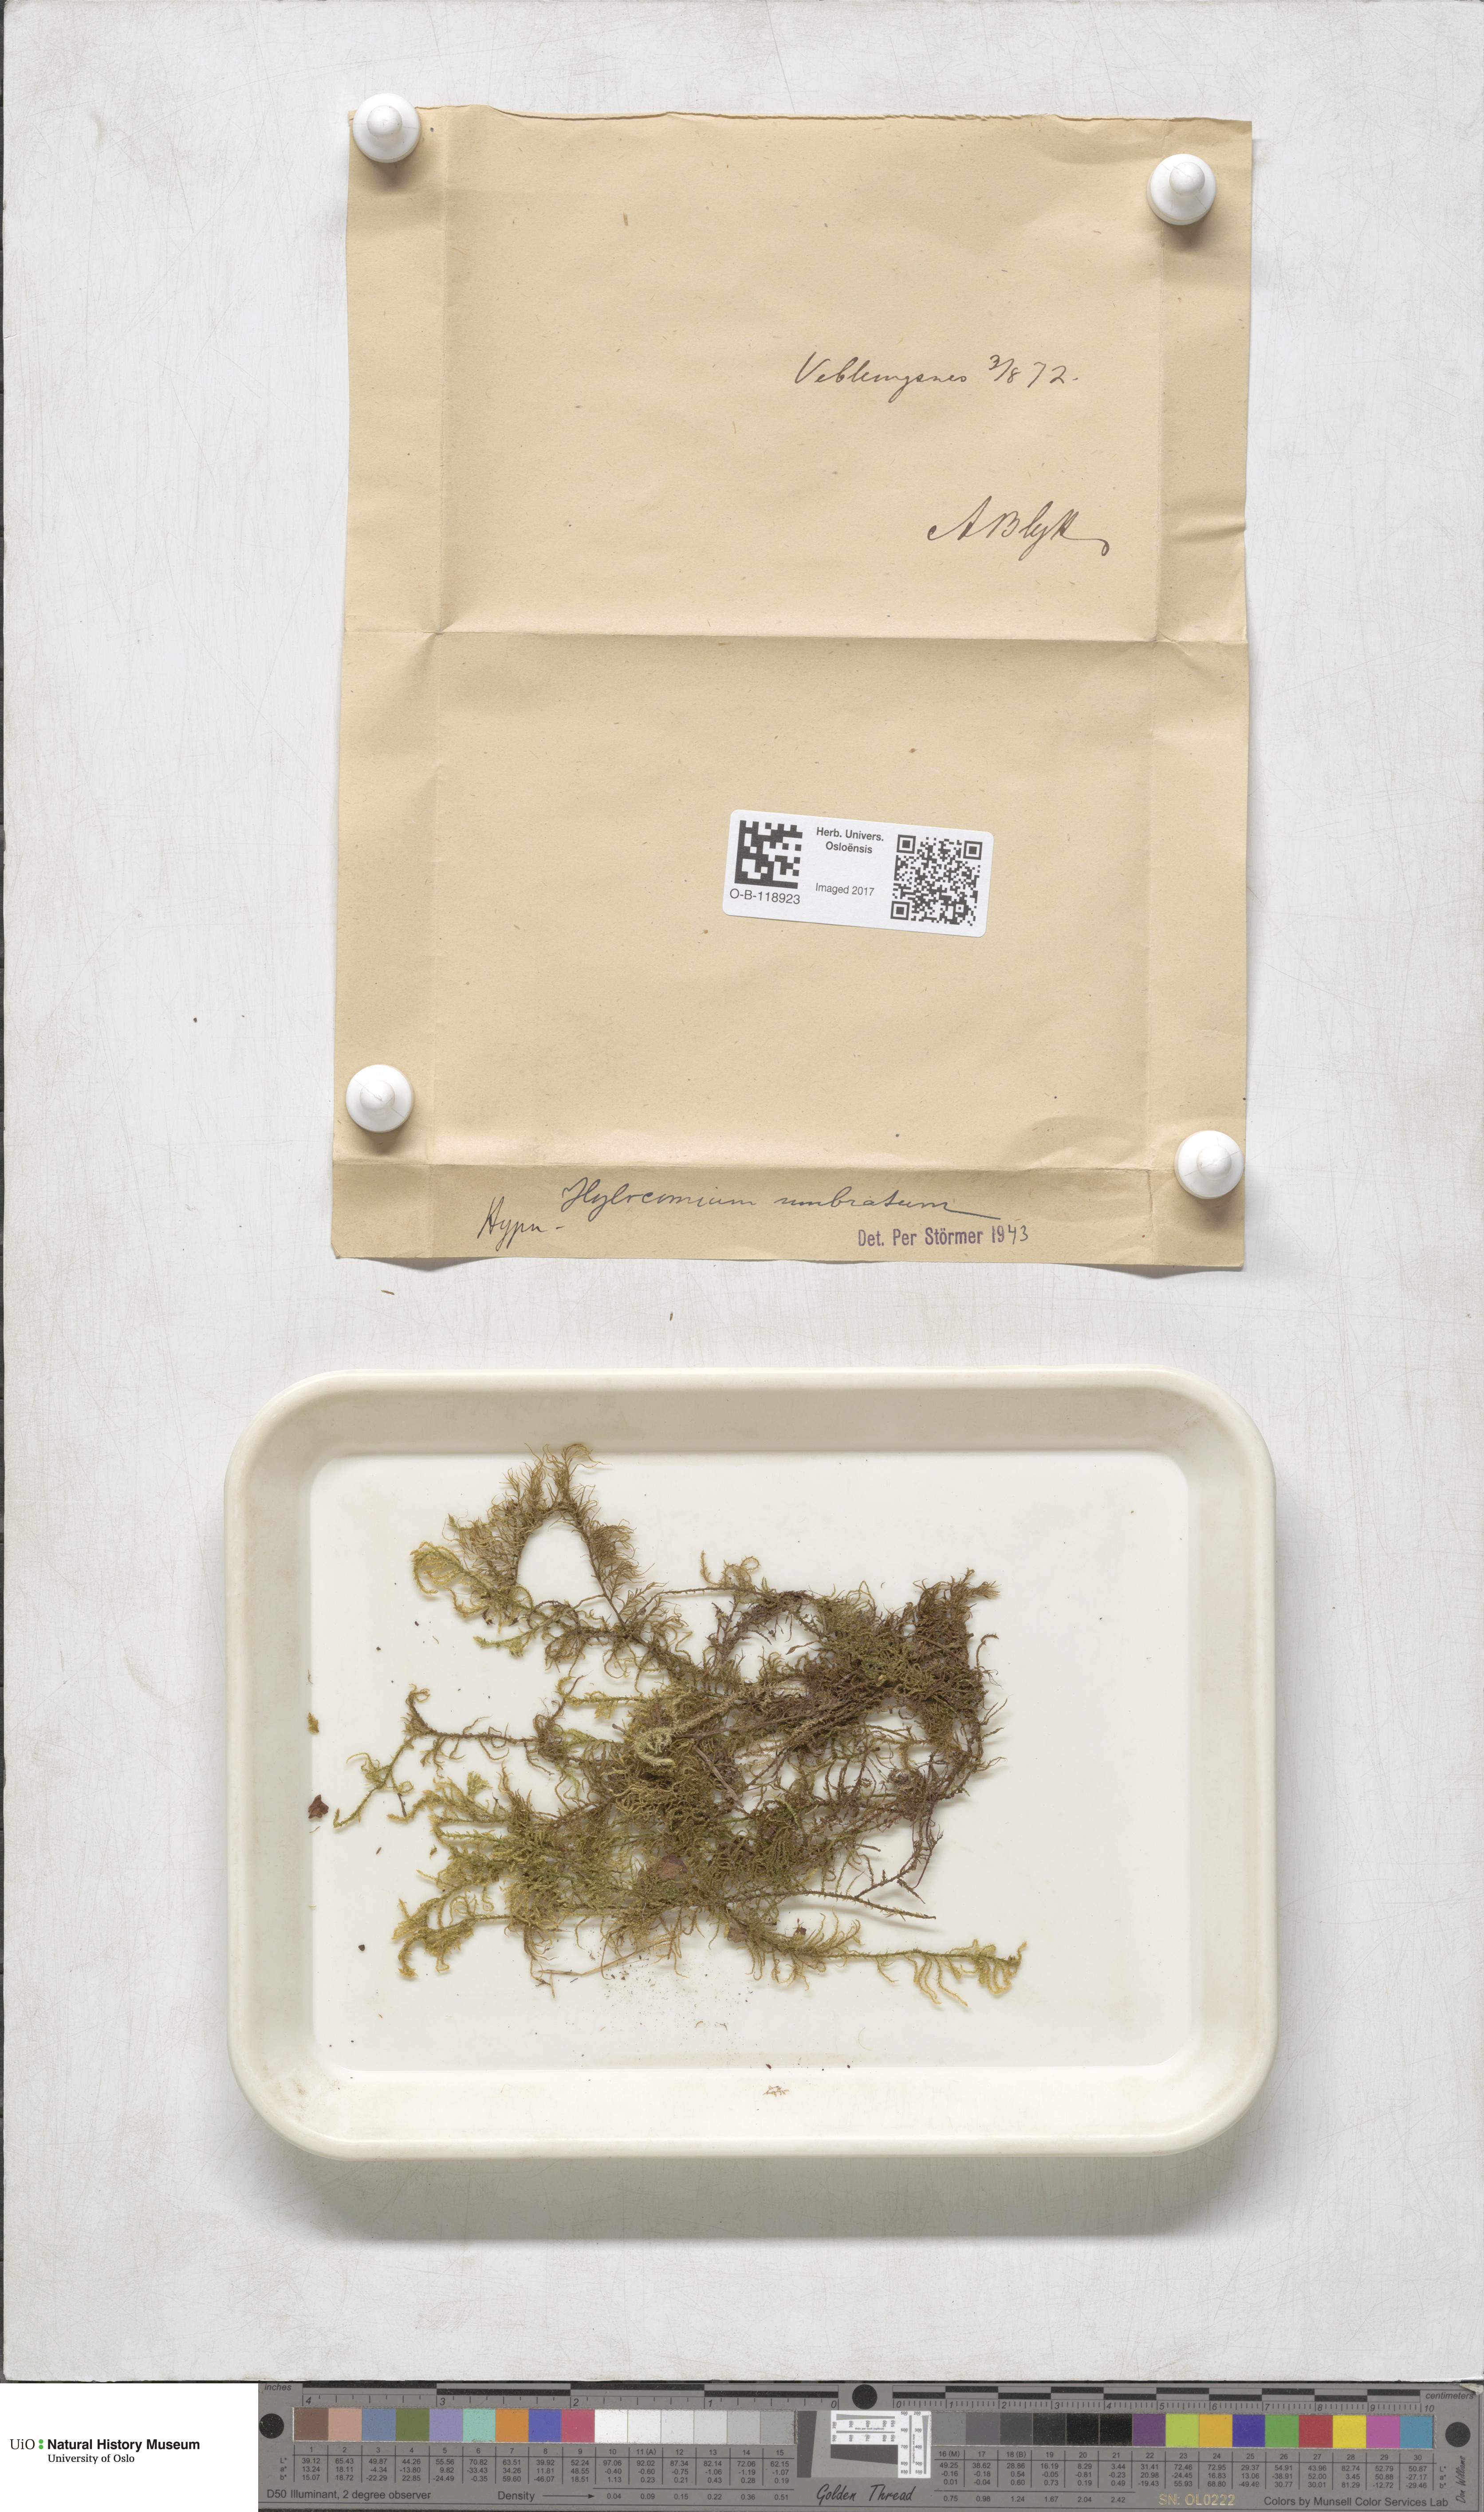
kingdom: Plantae
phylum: Bryophyta
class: Bryopsida
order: Hypnales
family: Hylocomiaceae
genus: Hylocomiastrum
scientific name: Hylocomiastrum umbratum
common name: Shaded woods moss
